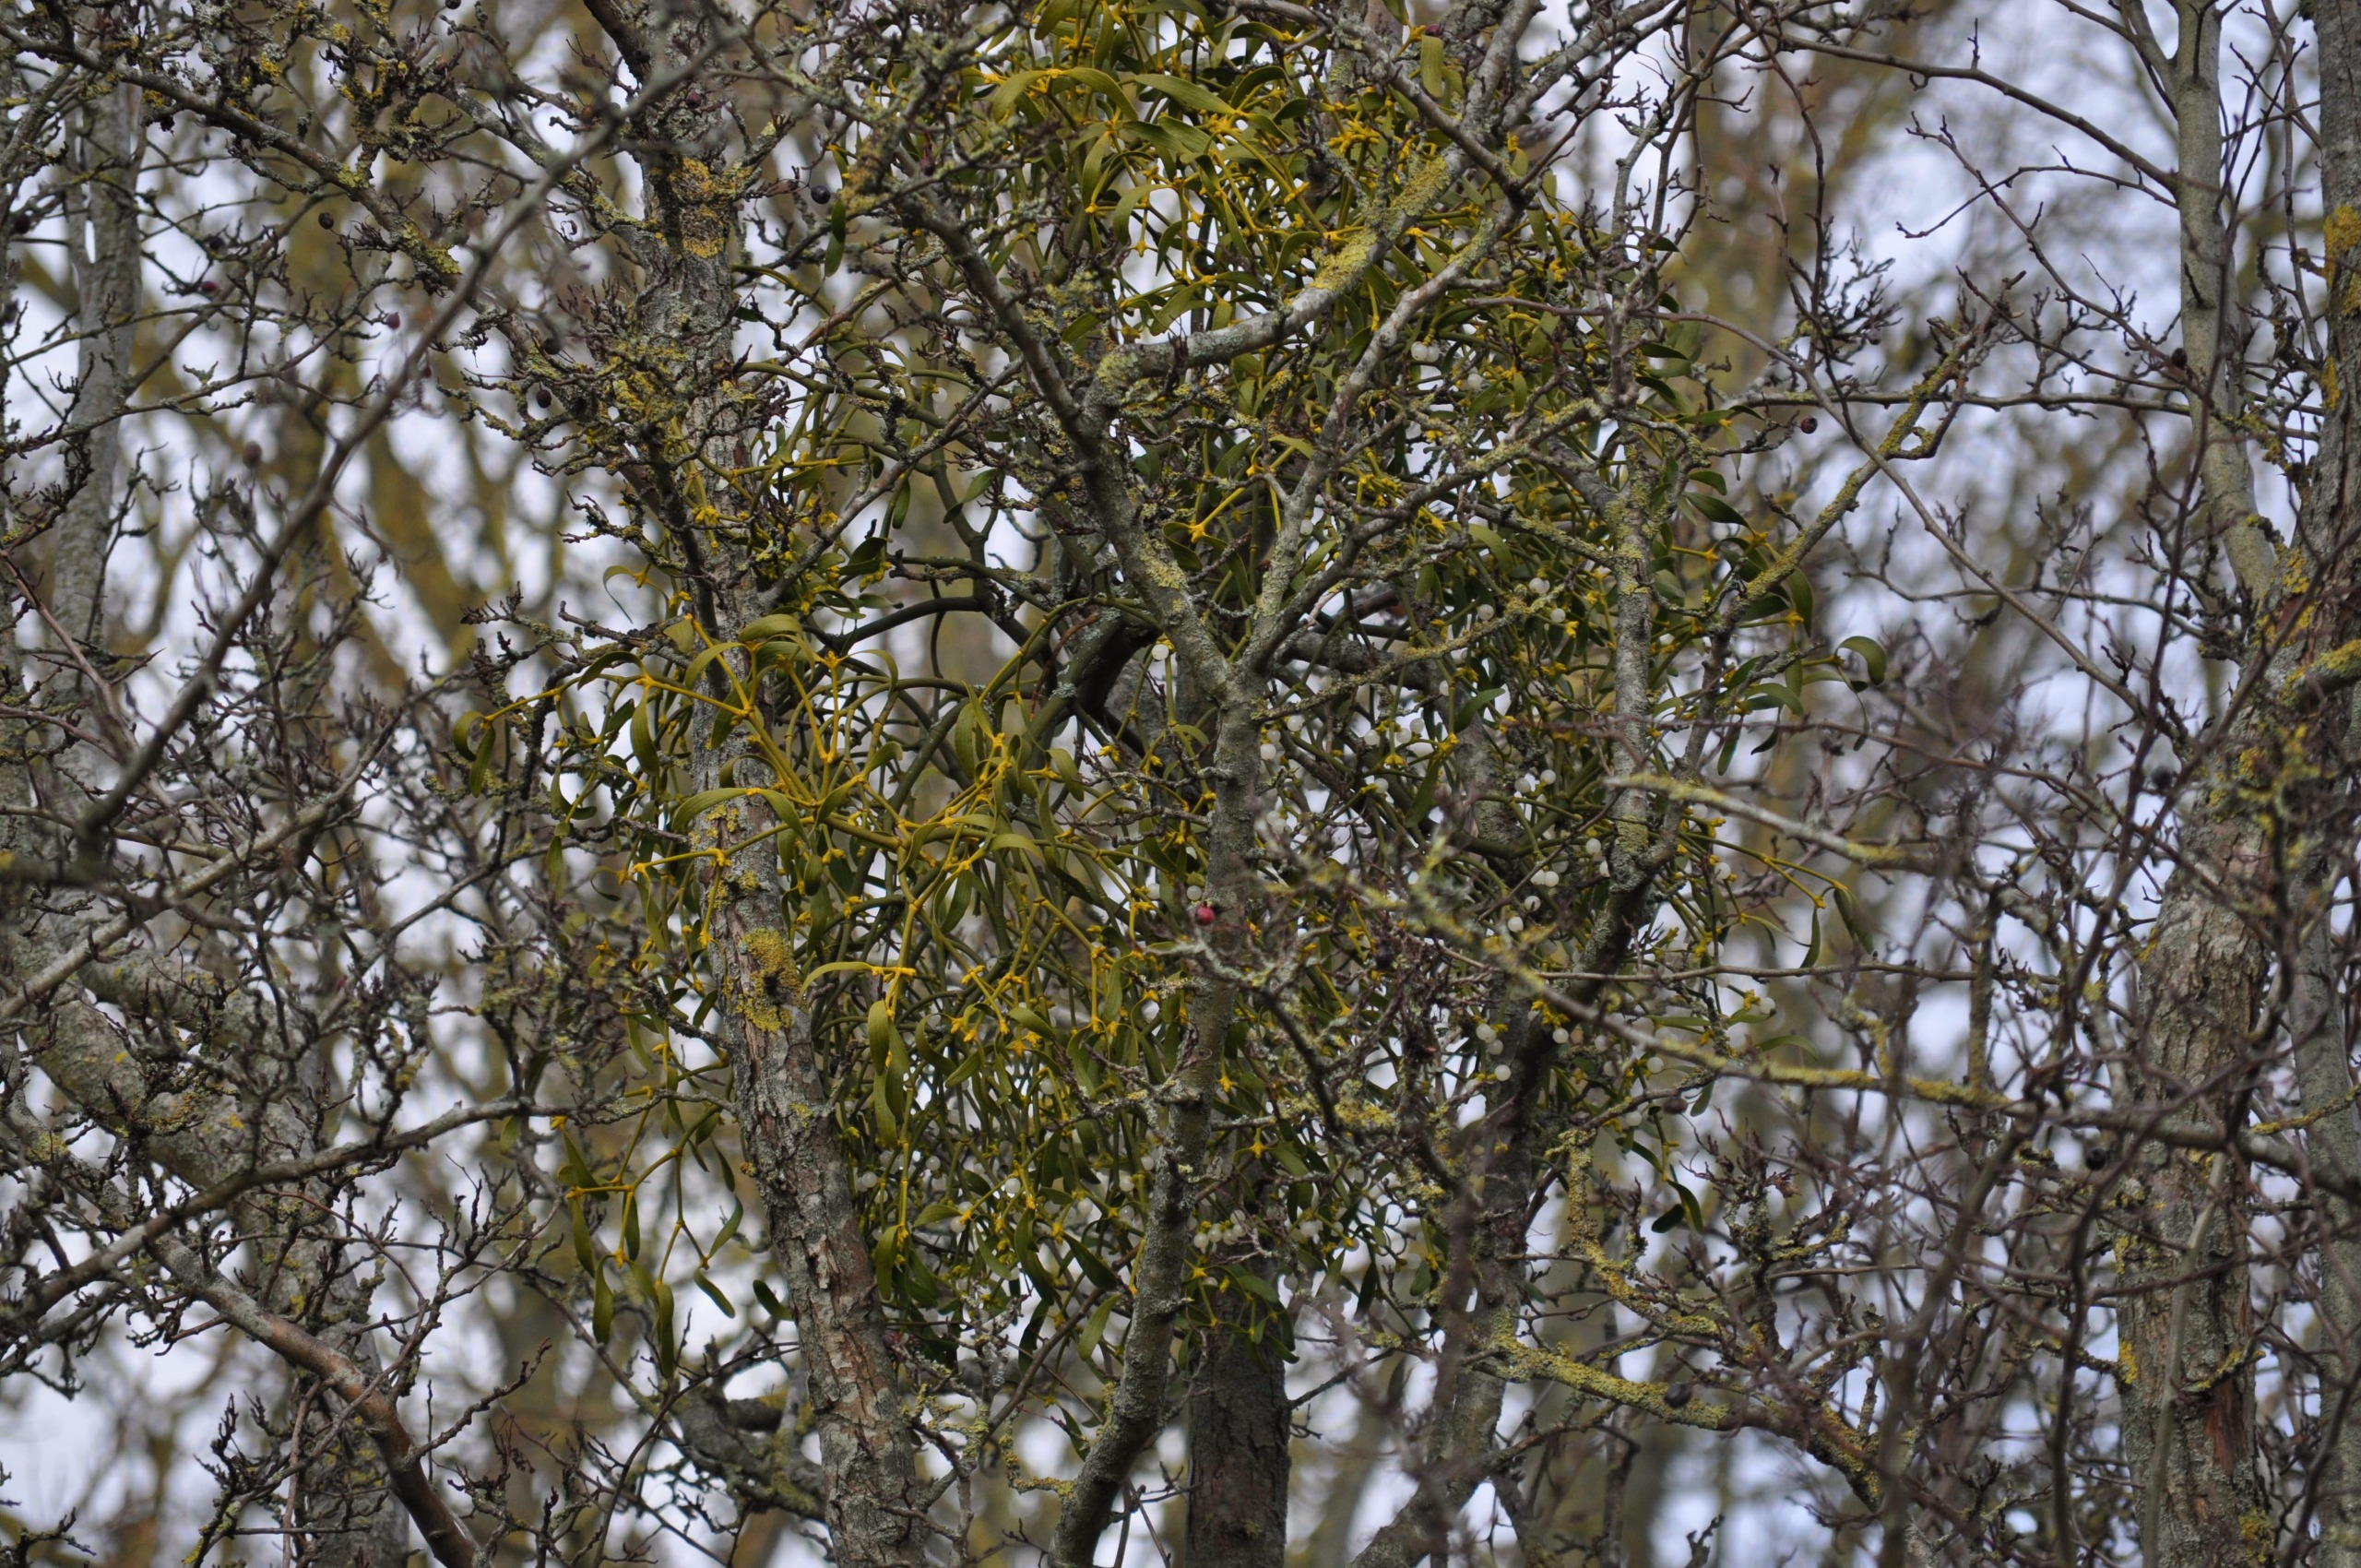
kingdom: Plantae
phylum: Tracheophyta
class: Magnoliopsida
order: Santalales
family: Viscaceae
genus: Viscum
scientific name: Viscum album
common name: Mistelten
